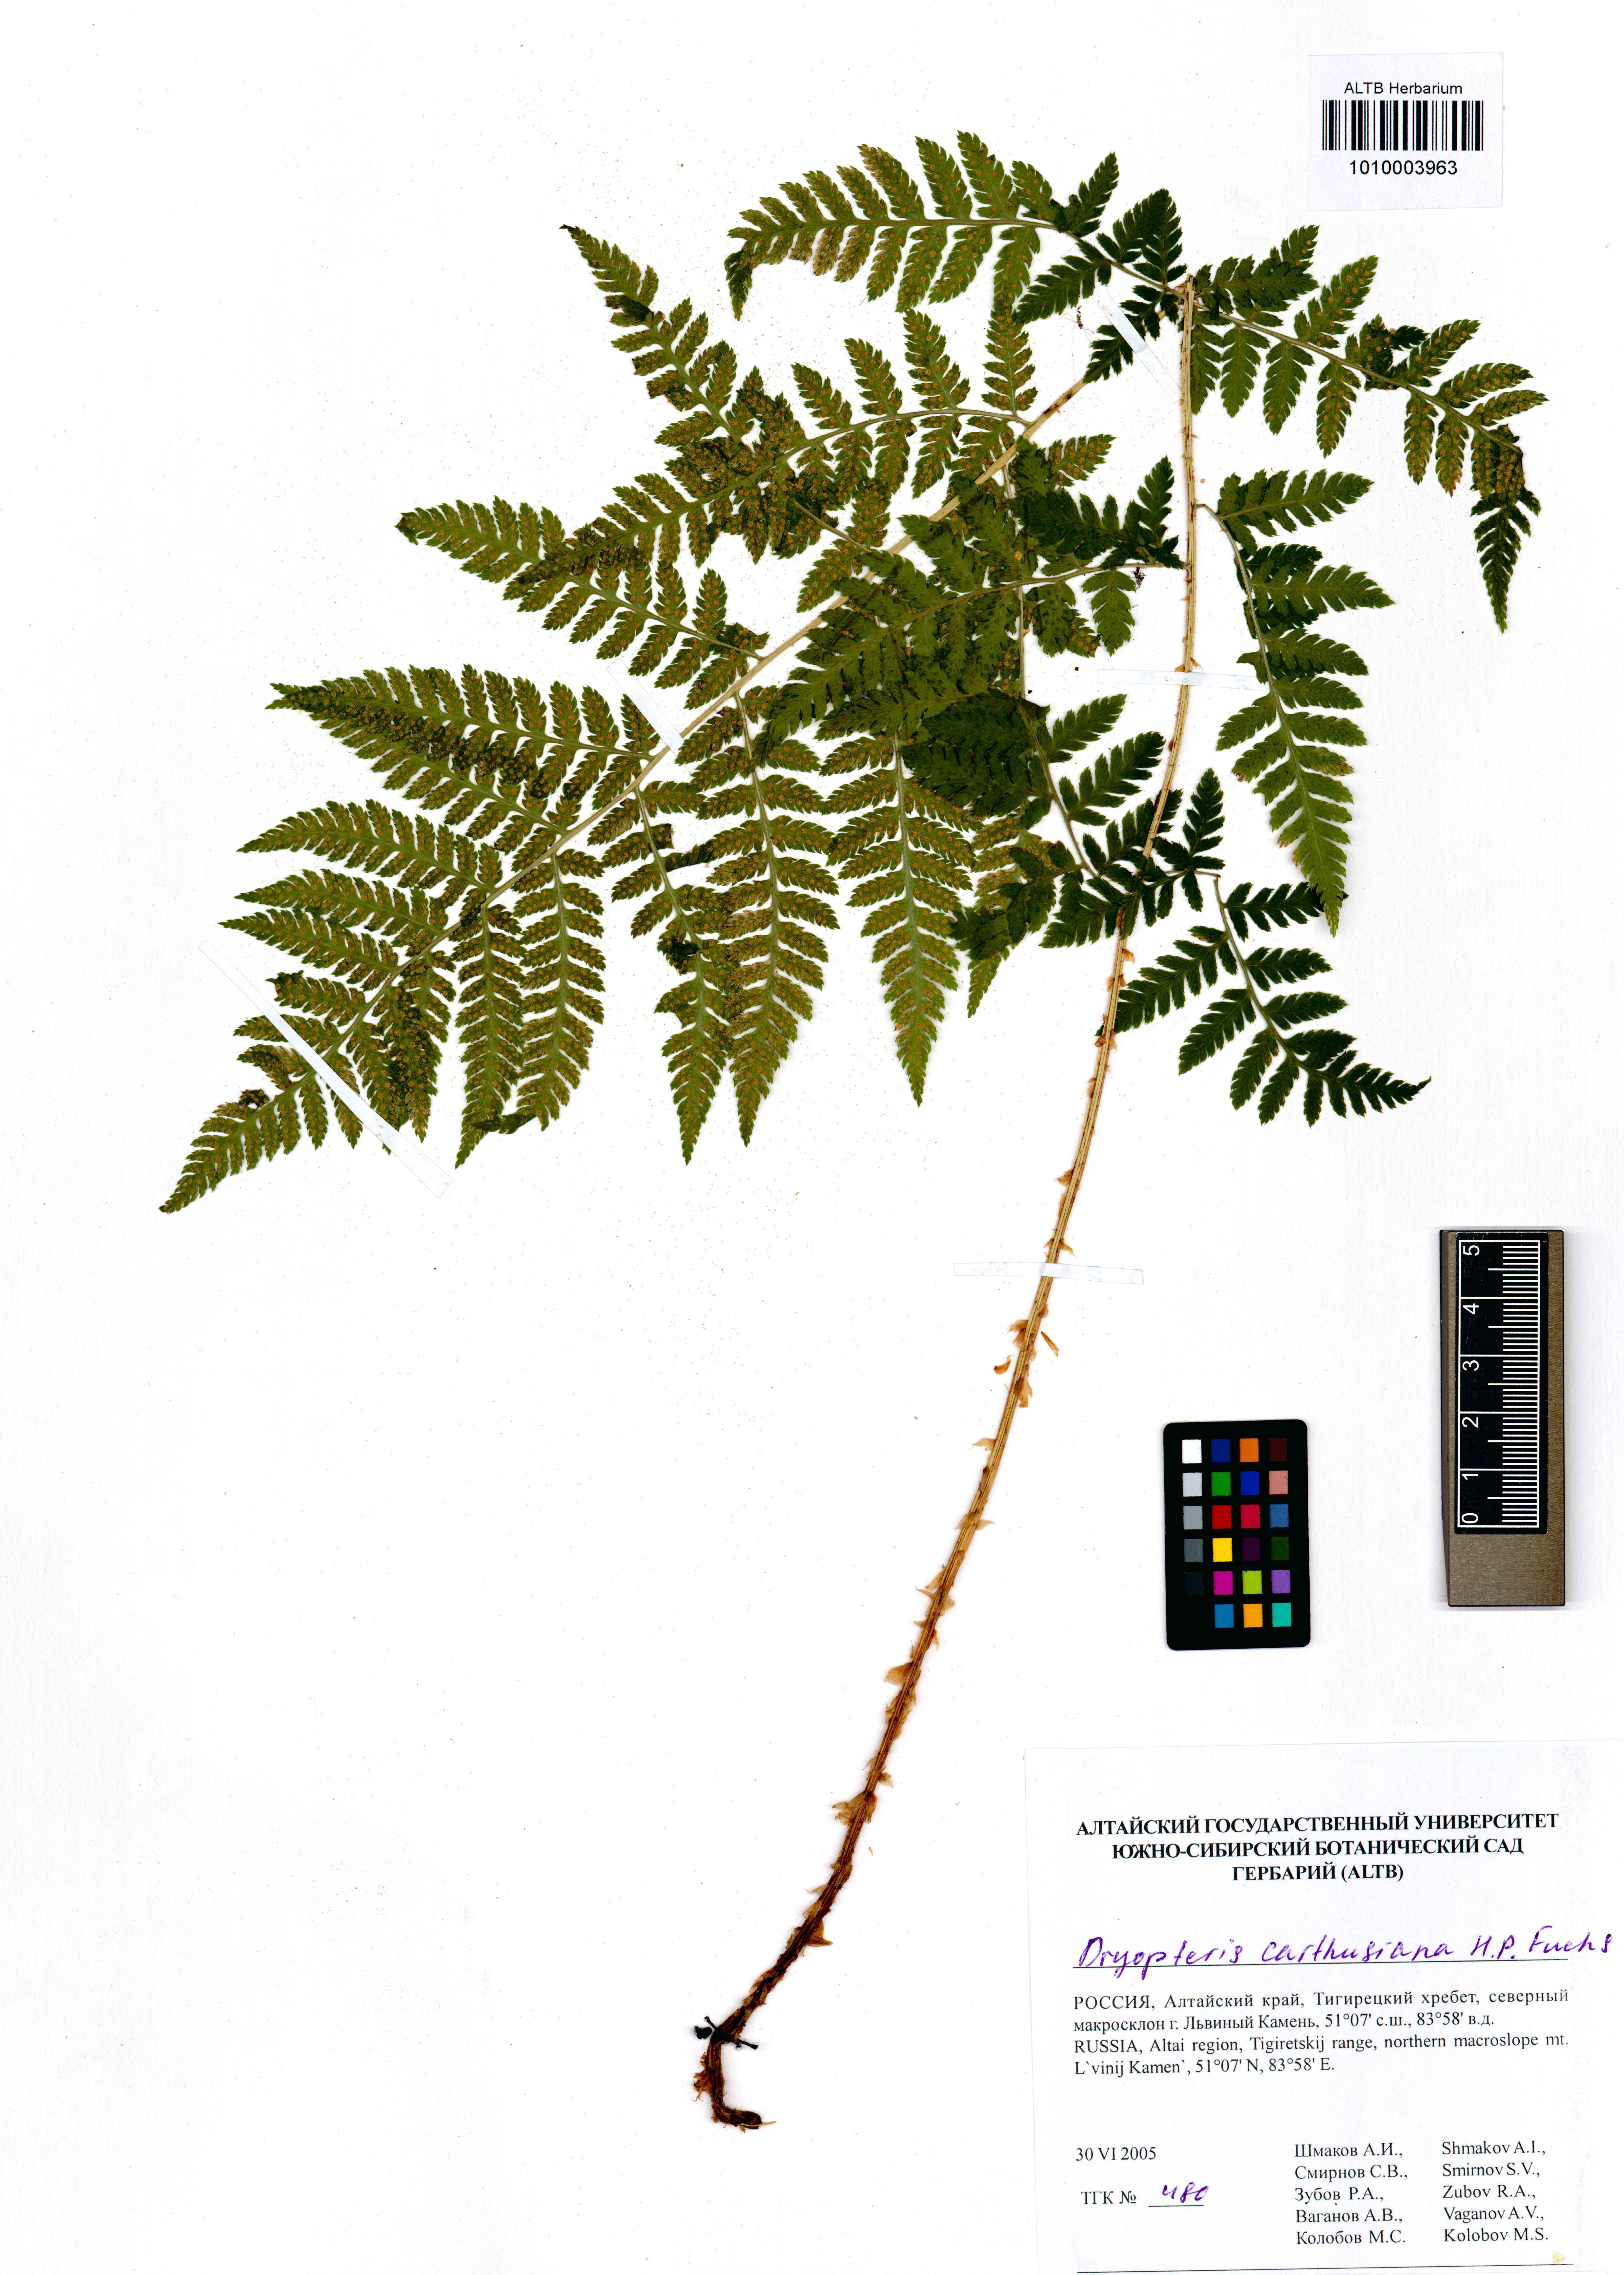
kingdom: Plantae
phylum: Tracheophyta
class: Polypodiopsida
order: Polypodiales
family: Dryopteridaceae
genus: Dryopteris
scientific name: Dryopteris carthusiana
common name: Narrow buckler-fern
